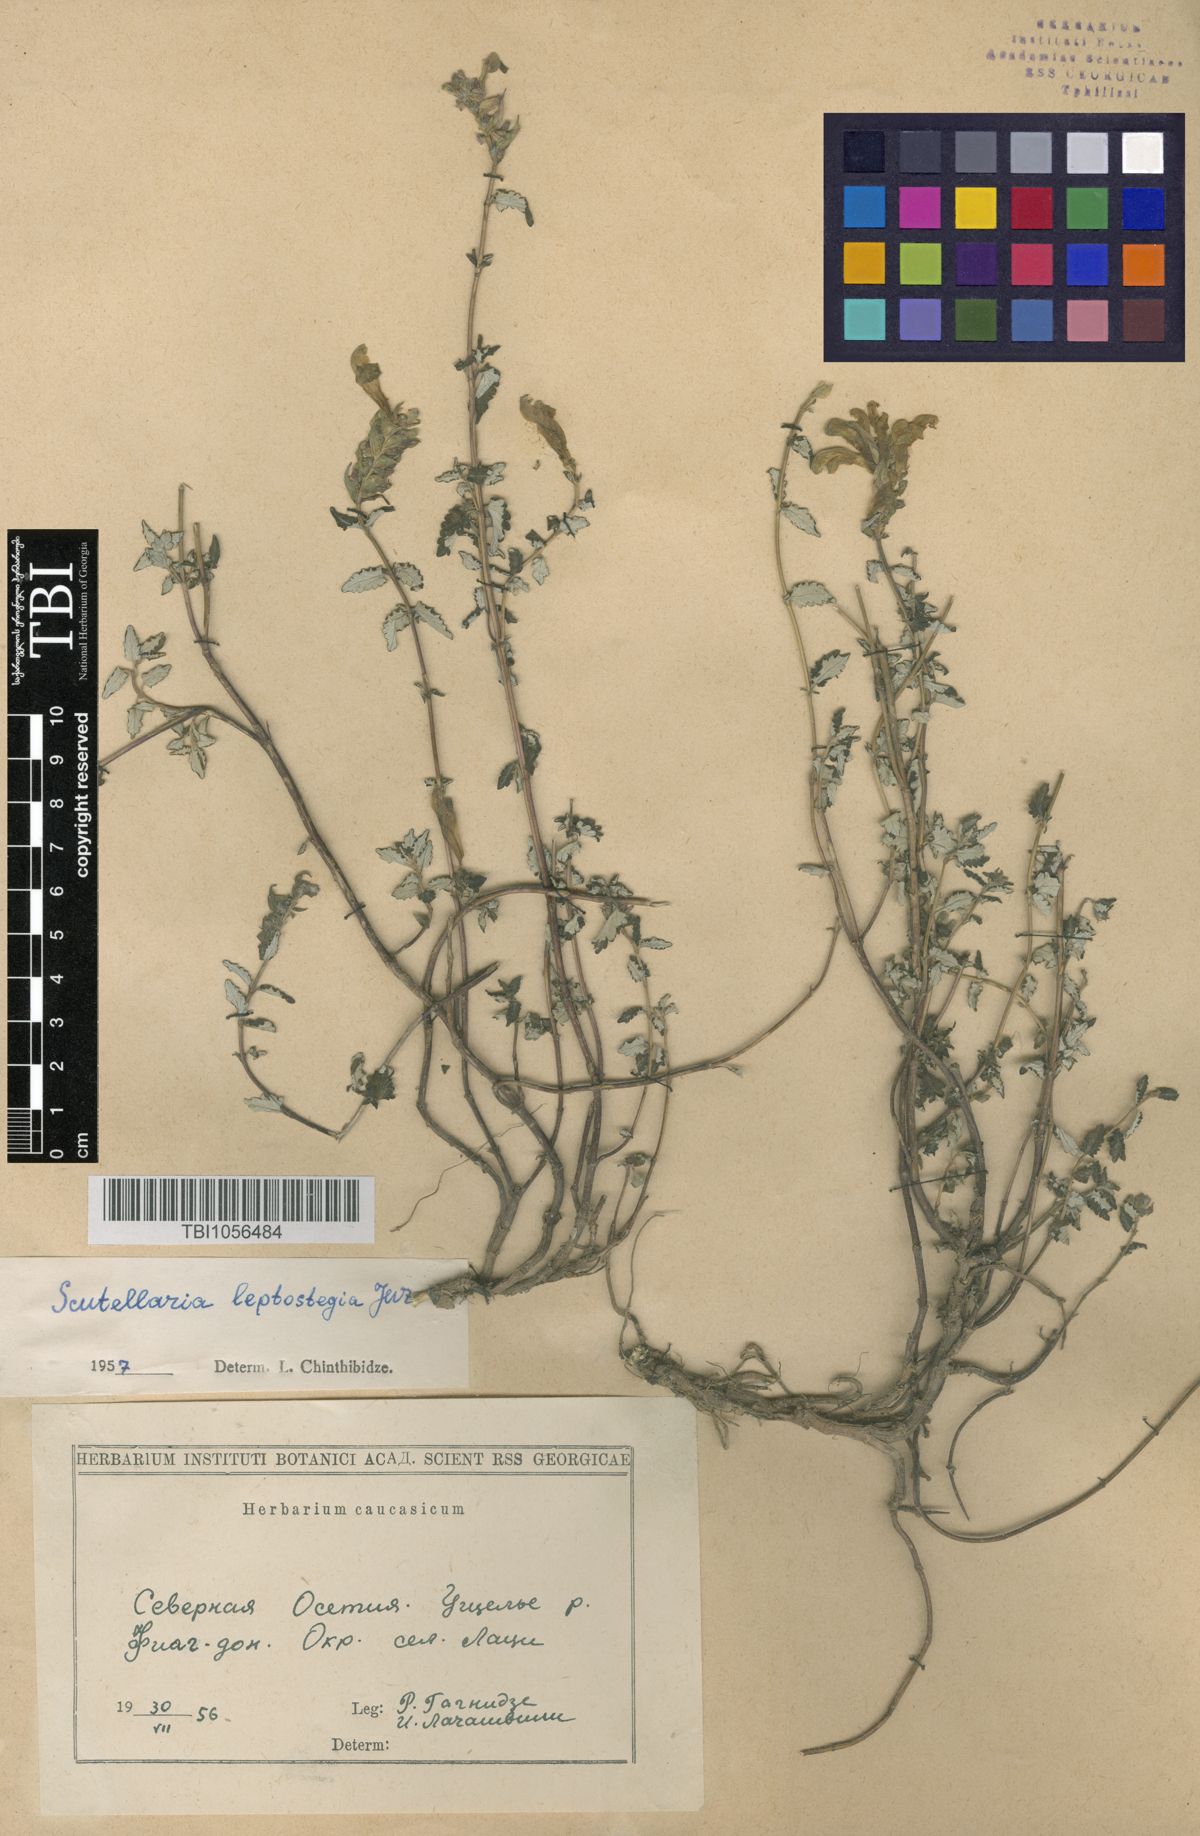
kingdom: Plantae
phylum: Tracheophyta
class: Magnoliopsida
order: Lamiales
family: Lamiaceae
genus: Scutellaria
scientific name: Scutellaria leptostegia
